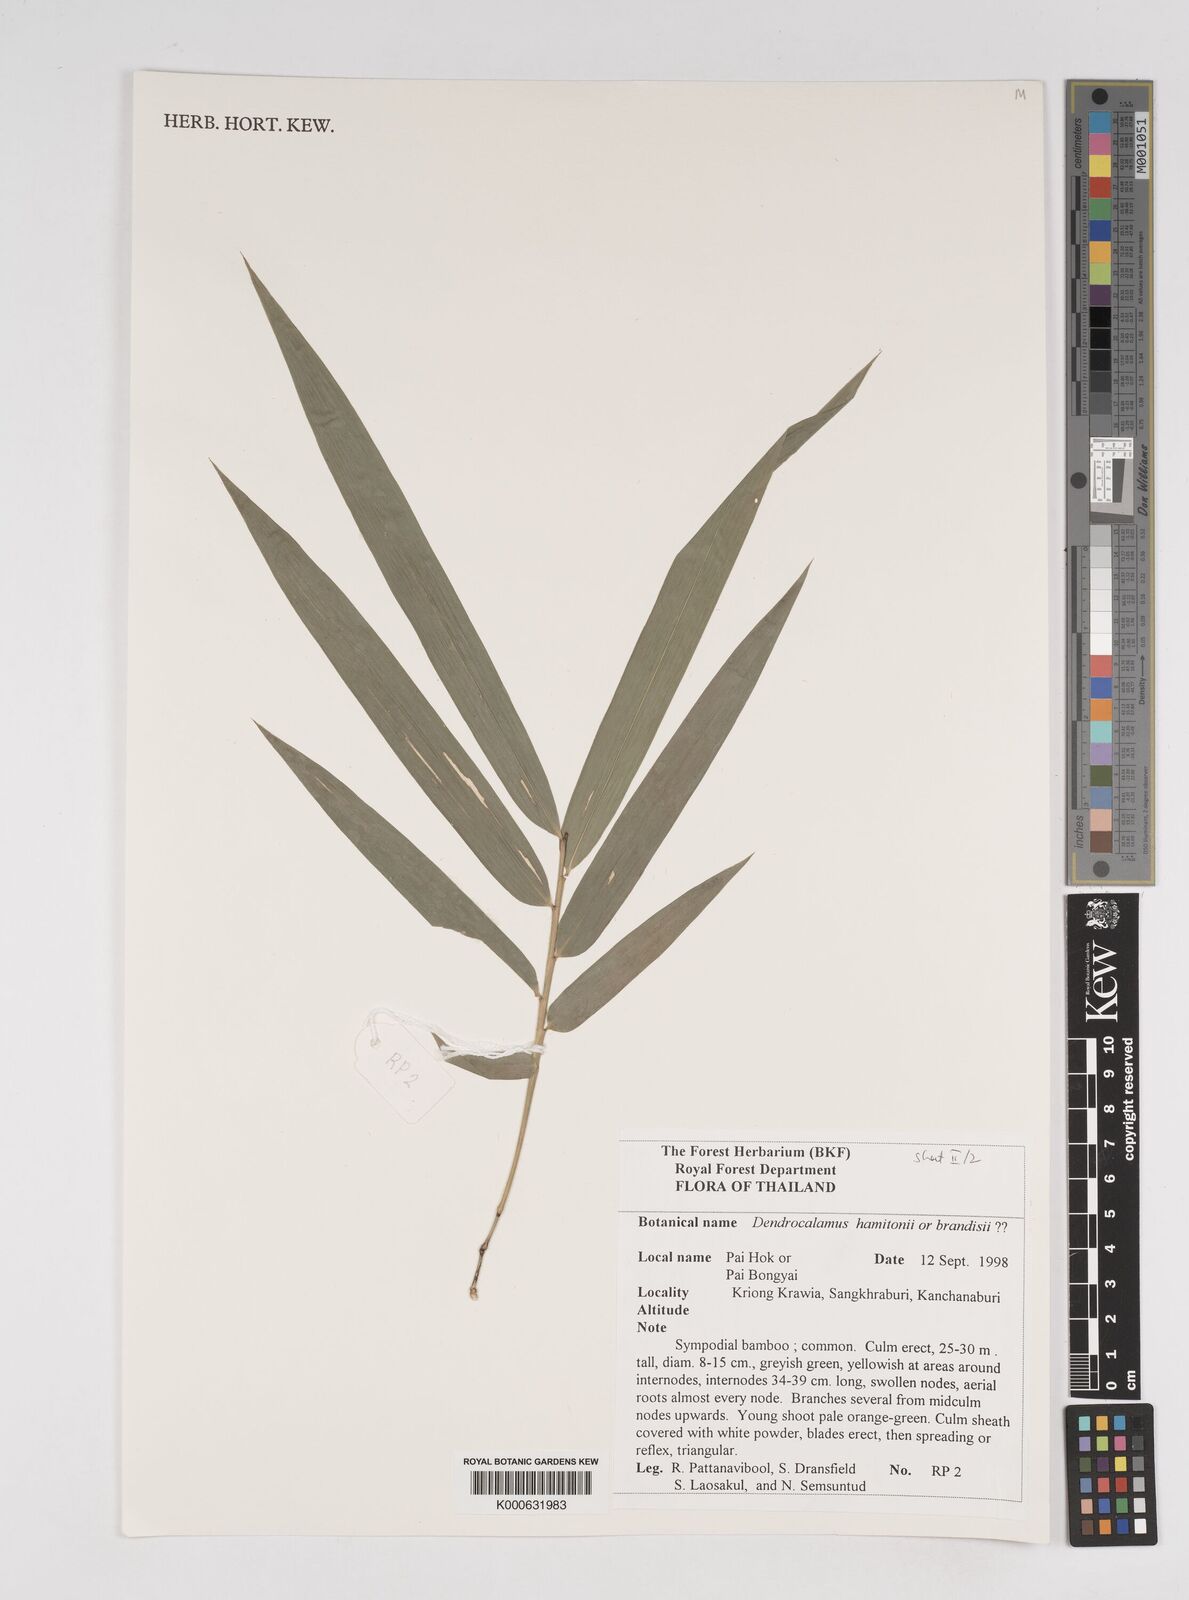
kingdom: Plantae
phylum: Tracheophyta
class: Liliopsida
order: Poales
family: Poaceae
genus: Dendrocalamus
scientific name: Dendrocalamus
